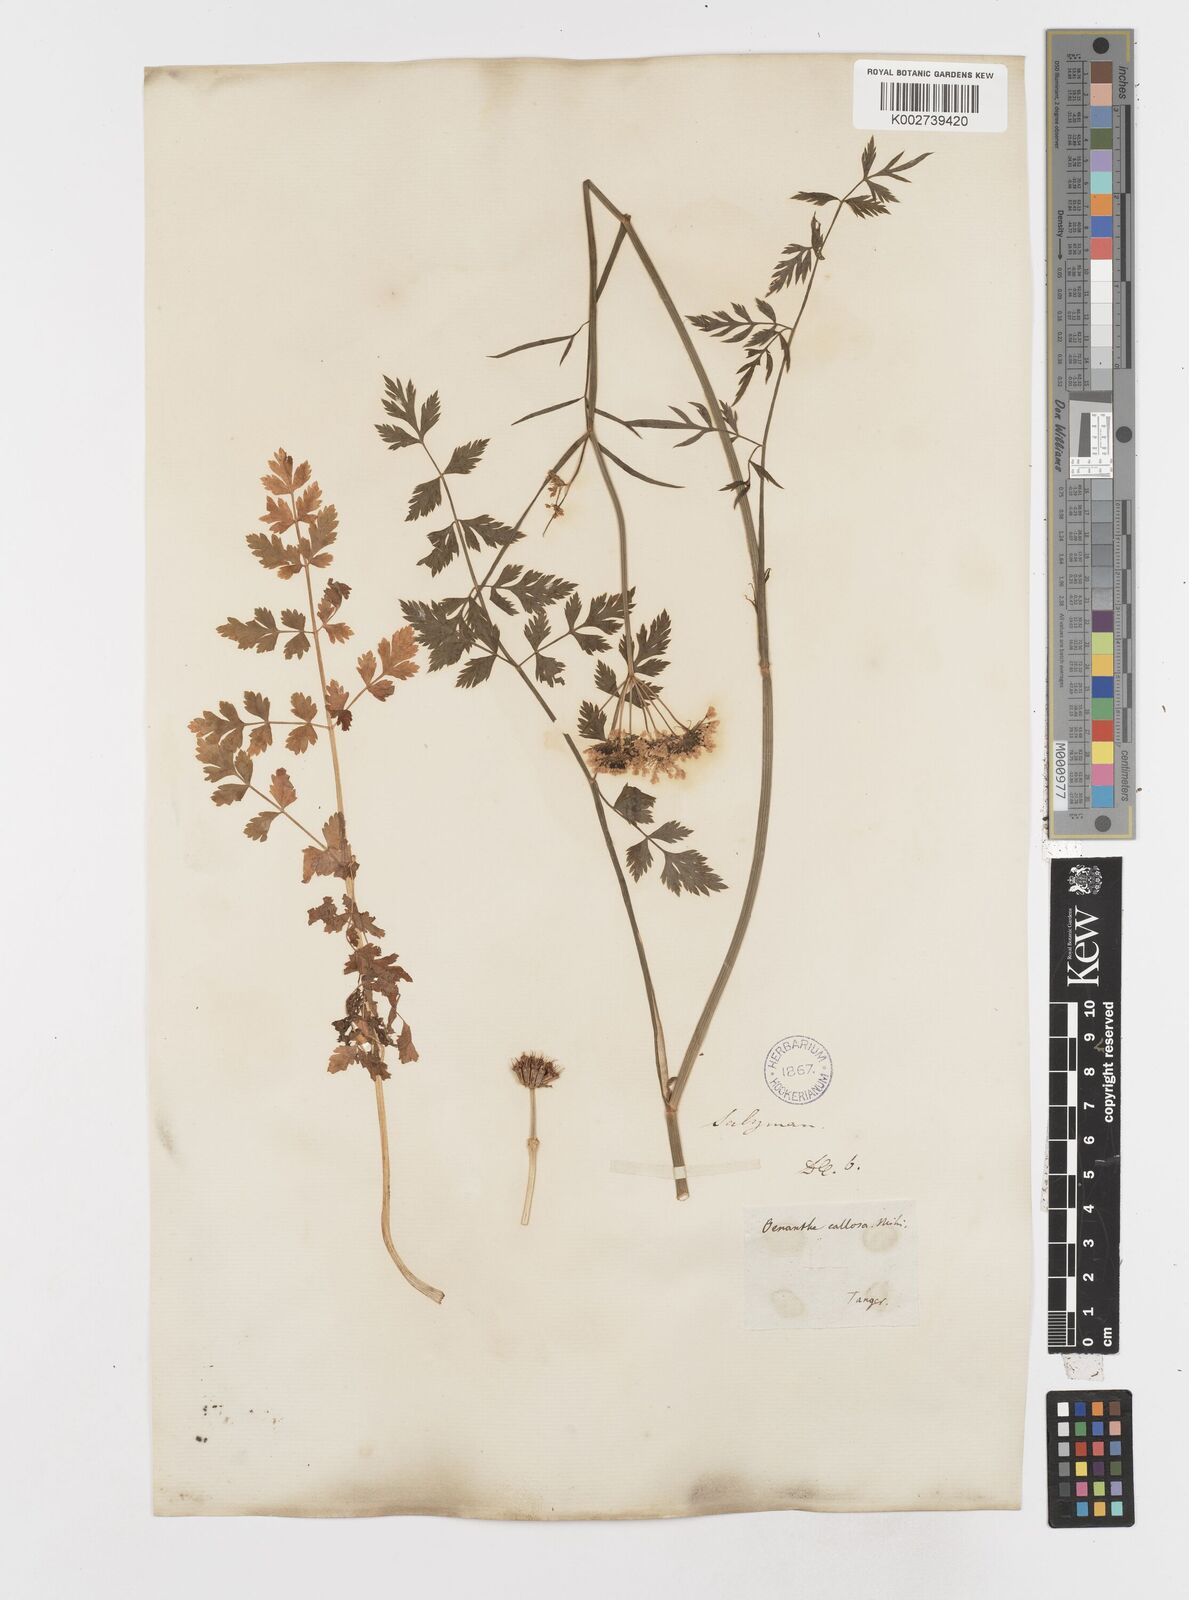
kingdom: Plantae
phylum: Tracheophyta
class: Magnoliopsida
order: Apiales
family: Apiaceae
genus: Oenanthe
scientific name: Oenanthe pimpinelloides
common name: Corky-fruited water-dropwort
